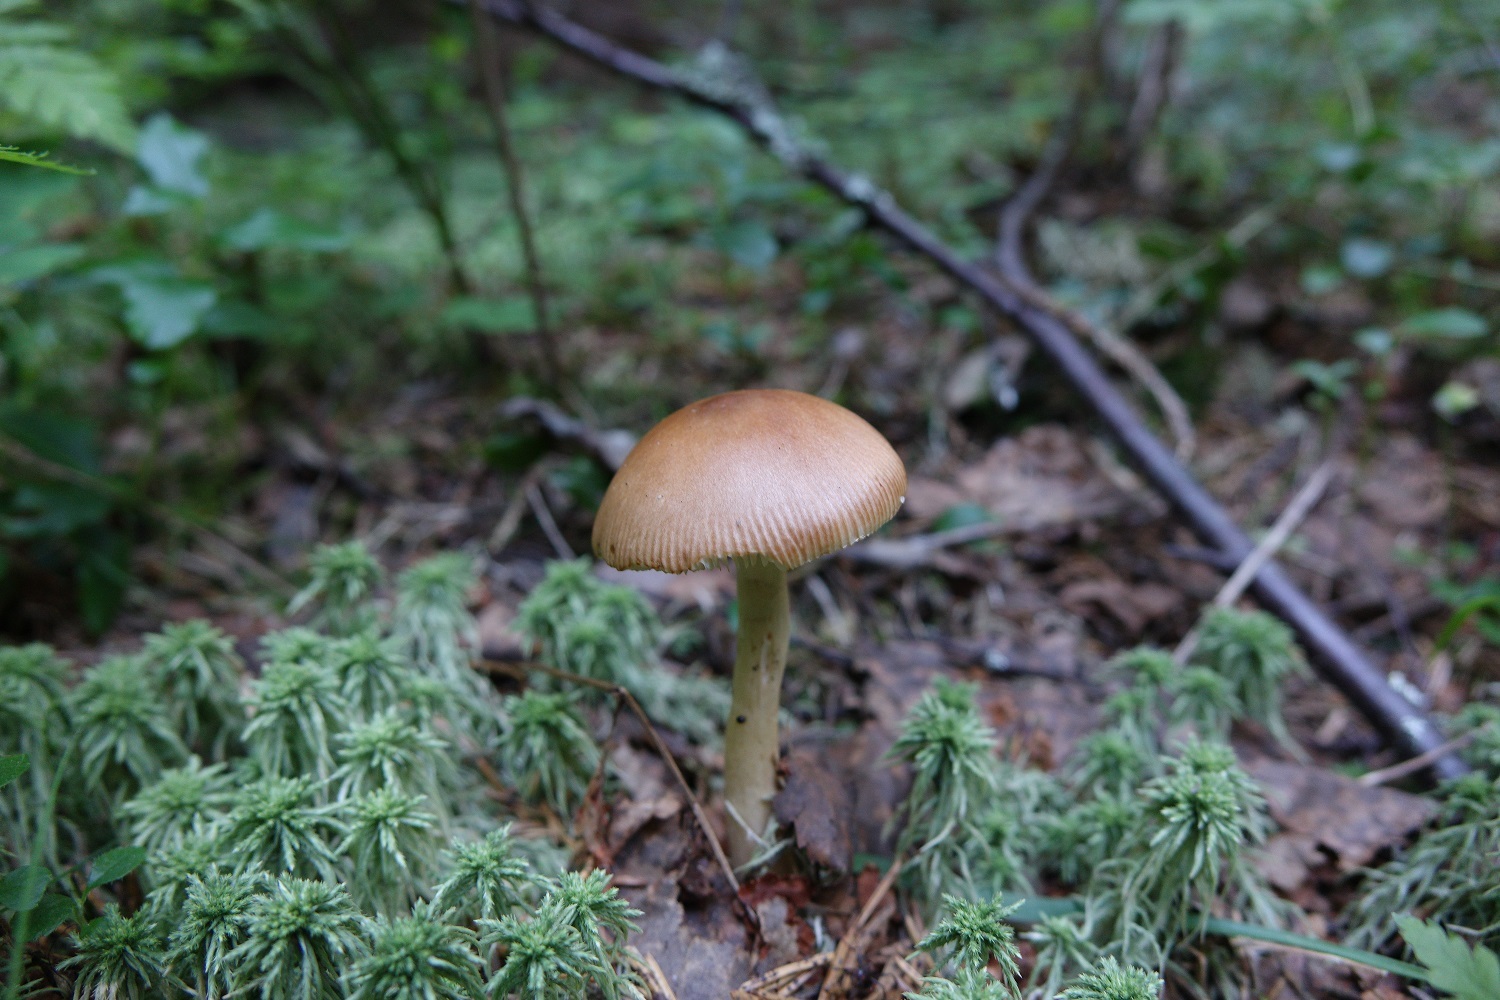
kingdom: Fungi
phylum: Basidiomycota
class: Agaricomycetes
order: Agaricales
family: Amanitaceae
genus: Amanita
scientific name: Amanita fulva
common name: Tawny grisette
